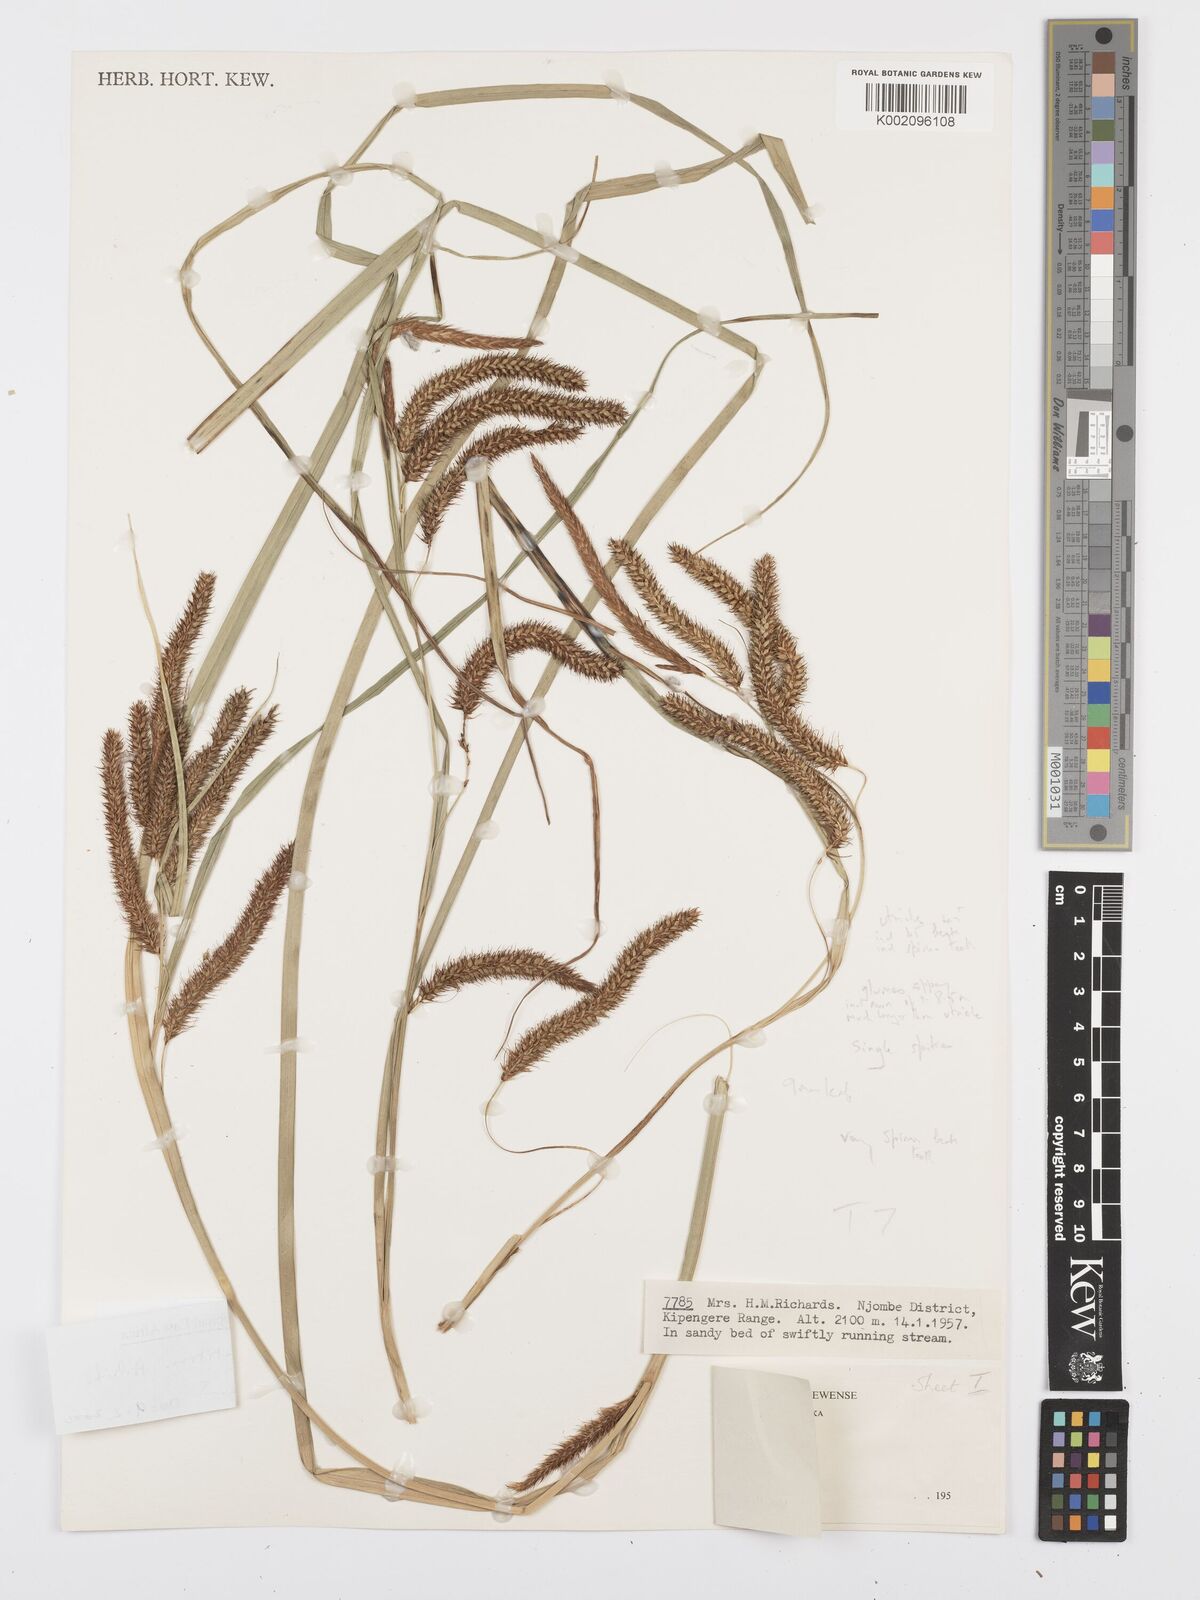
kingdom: Plantae
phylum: Tracheophyta
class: Liliopsida
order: Poales
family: Cyperaceae
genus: Carex
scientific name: Carex petitiana
